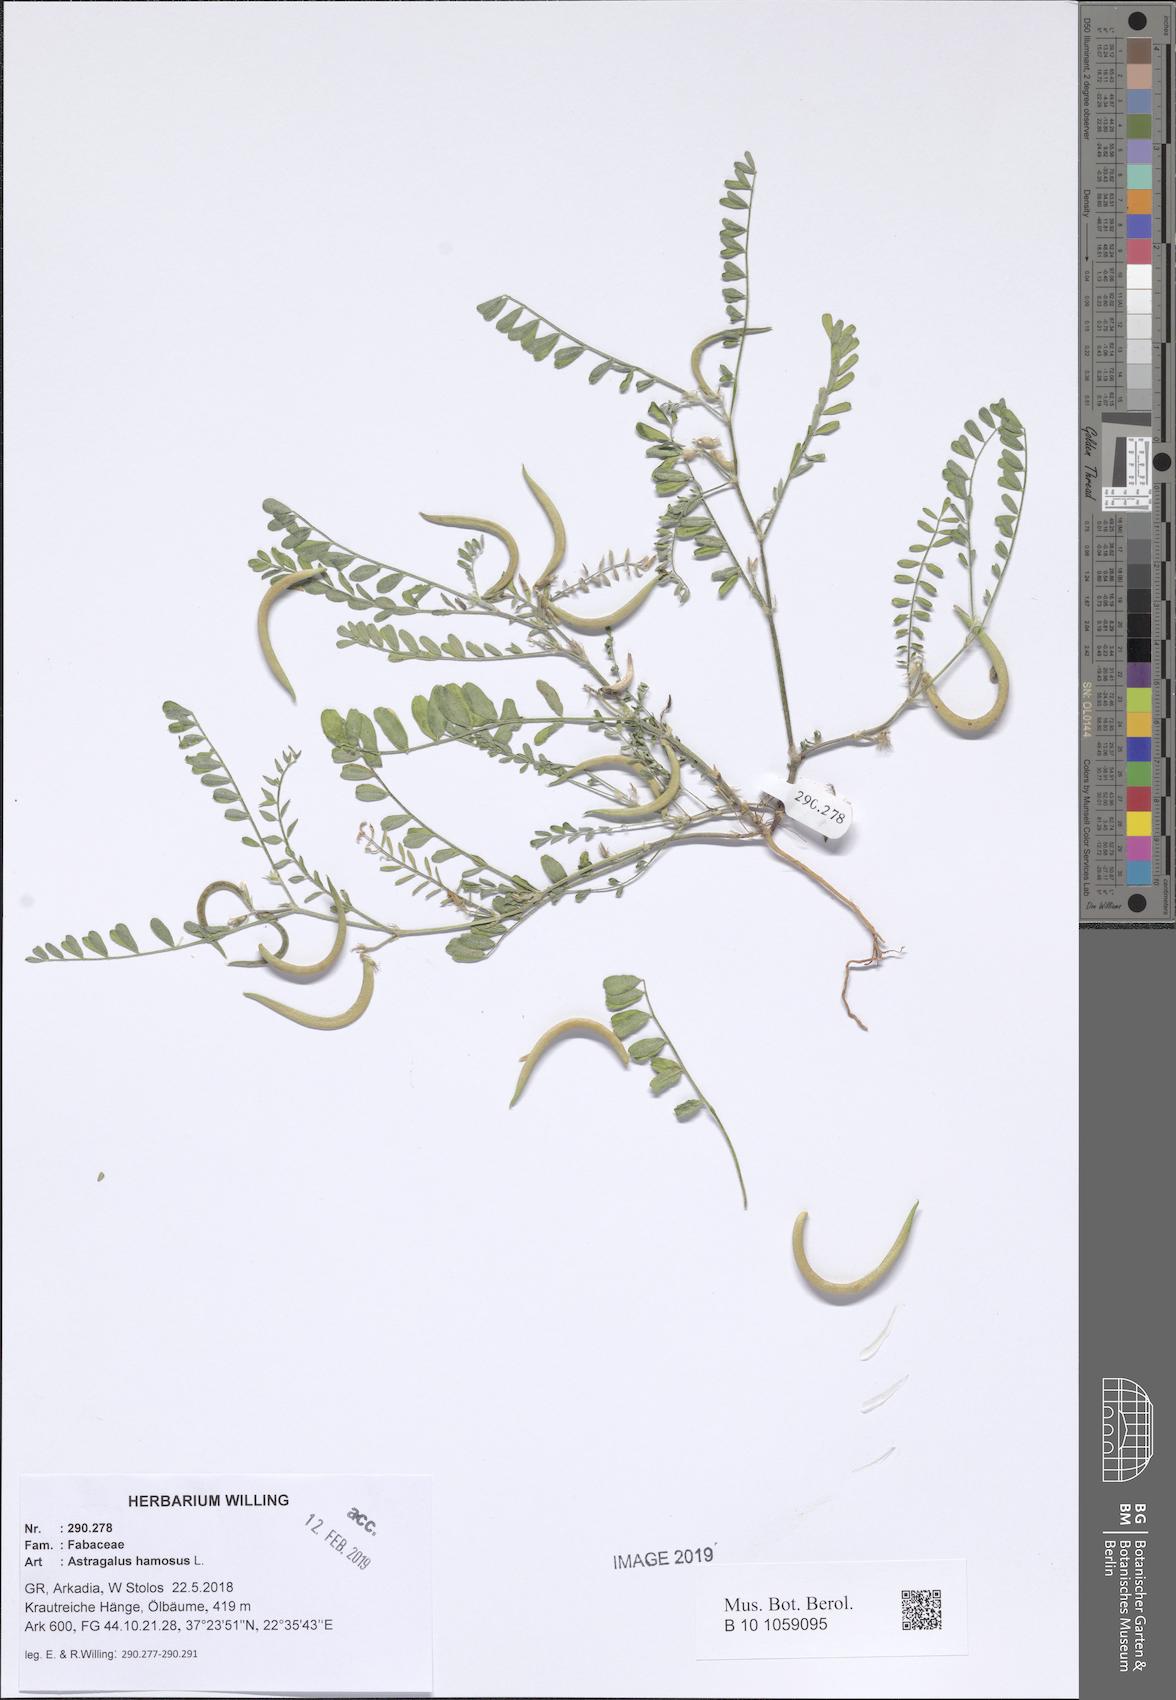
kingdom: Plantae
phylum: Tracheophyta
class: Magnoliopsida
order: Fabales
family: Fabaceae
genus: Astragalus
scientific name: Astragalus hamosus
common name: European milkvetch
